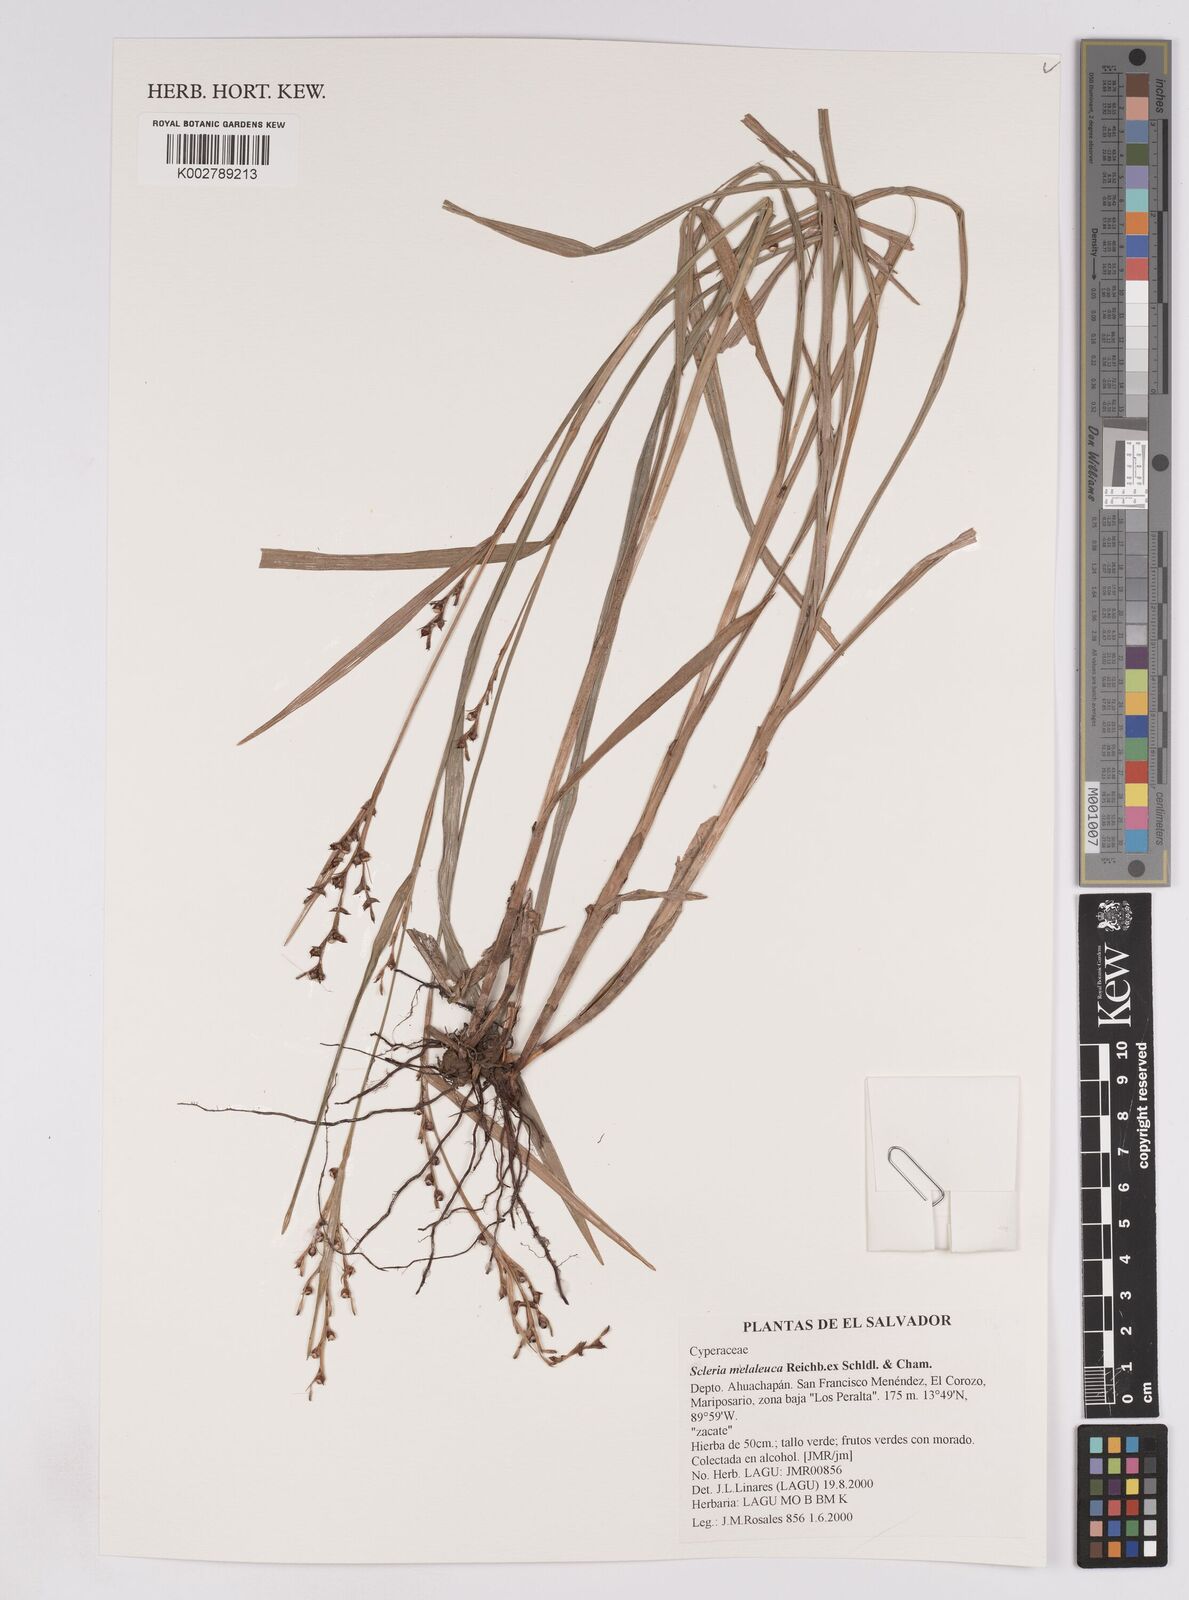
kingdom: Plantae
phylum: Tracheophyta
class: Liliopsida
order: Poales
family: Cyperaceae
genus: Scleria
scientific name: Scleria gaertneri
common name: Cortadera blanca
